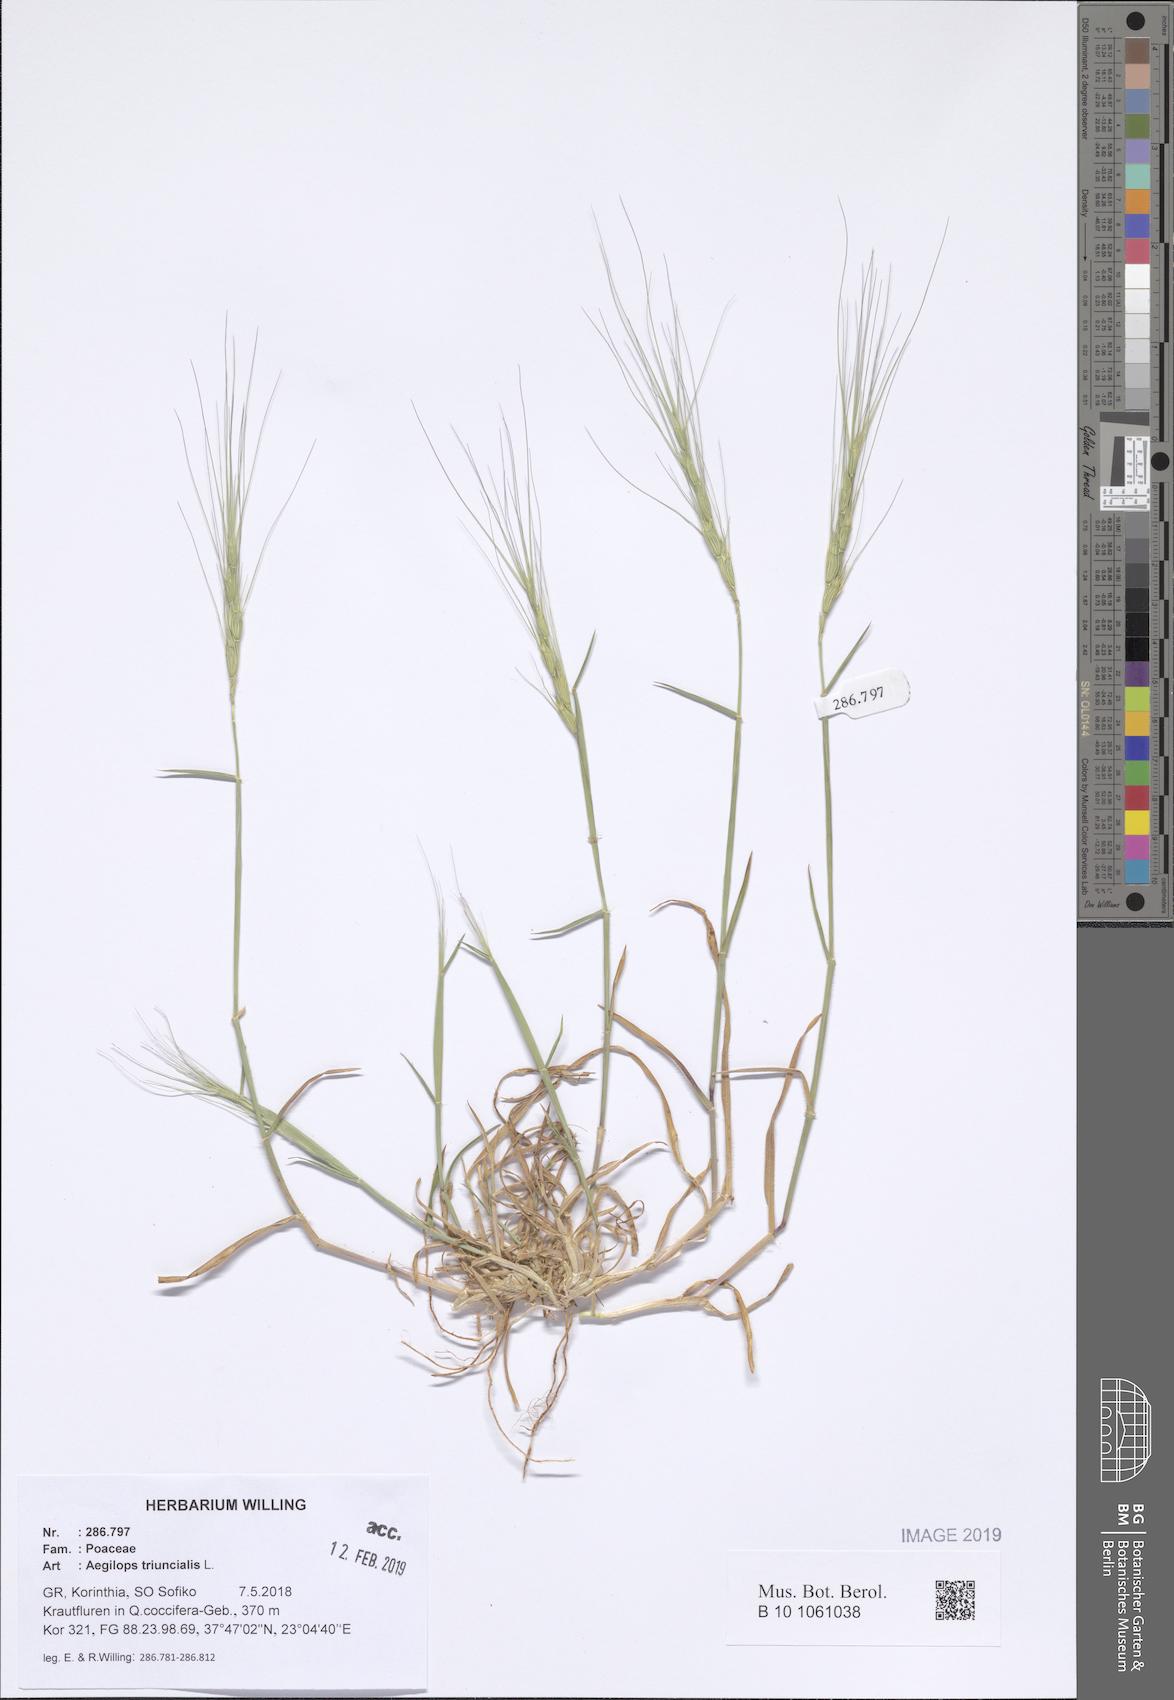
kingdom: Plantae
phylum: Tracheophyta
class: Liliopsida
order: Poales
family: Poaceae
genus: Aegilops
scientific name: Aegilops triuncialis
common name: Barb goat grass
